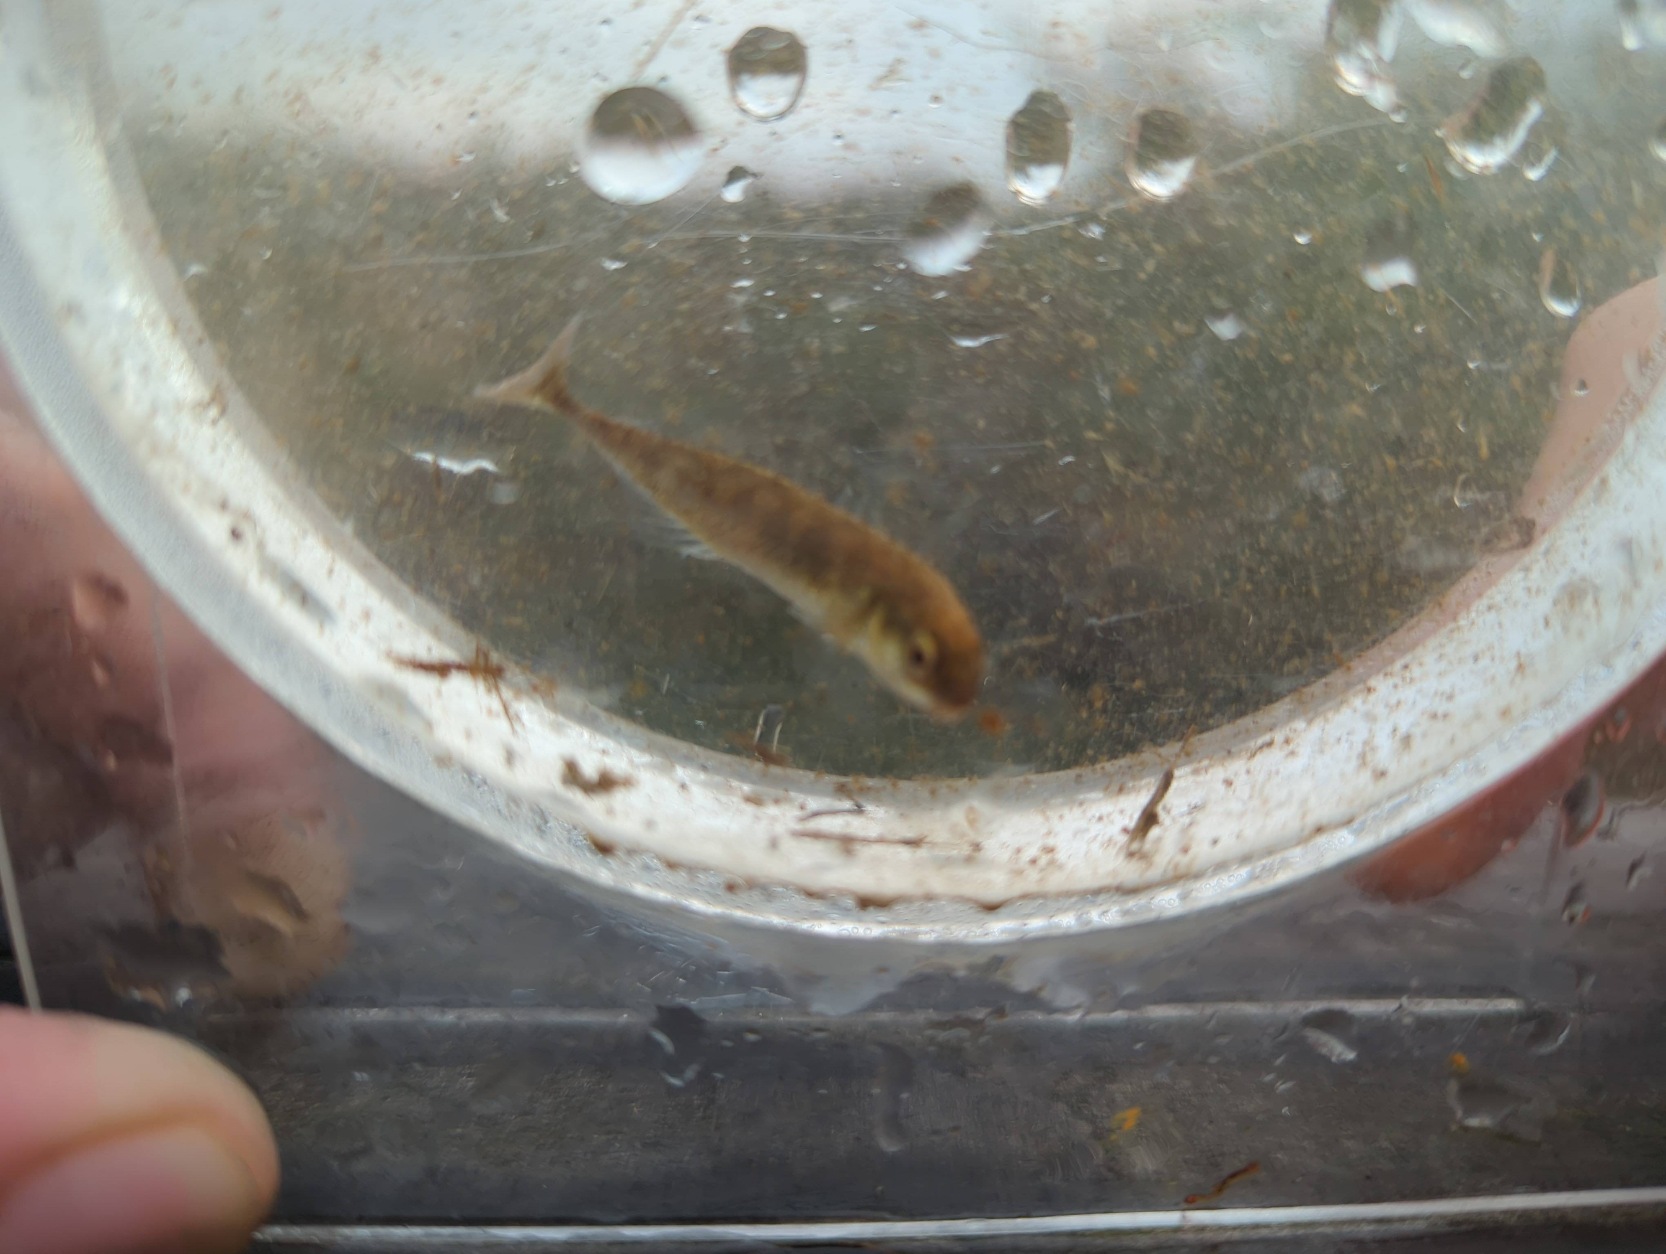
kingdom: Animalia
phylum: Chordata
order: Gasterosteiformes
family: Gasterosteidae
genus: Pungitius
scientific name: Pungitius pungitius
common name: Nipigget hundestejle
